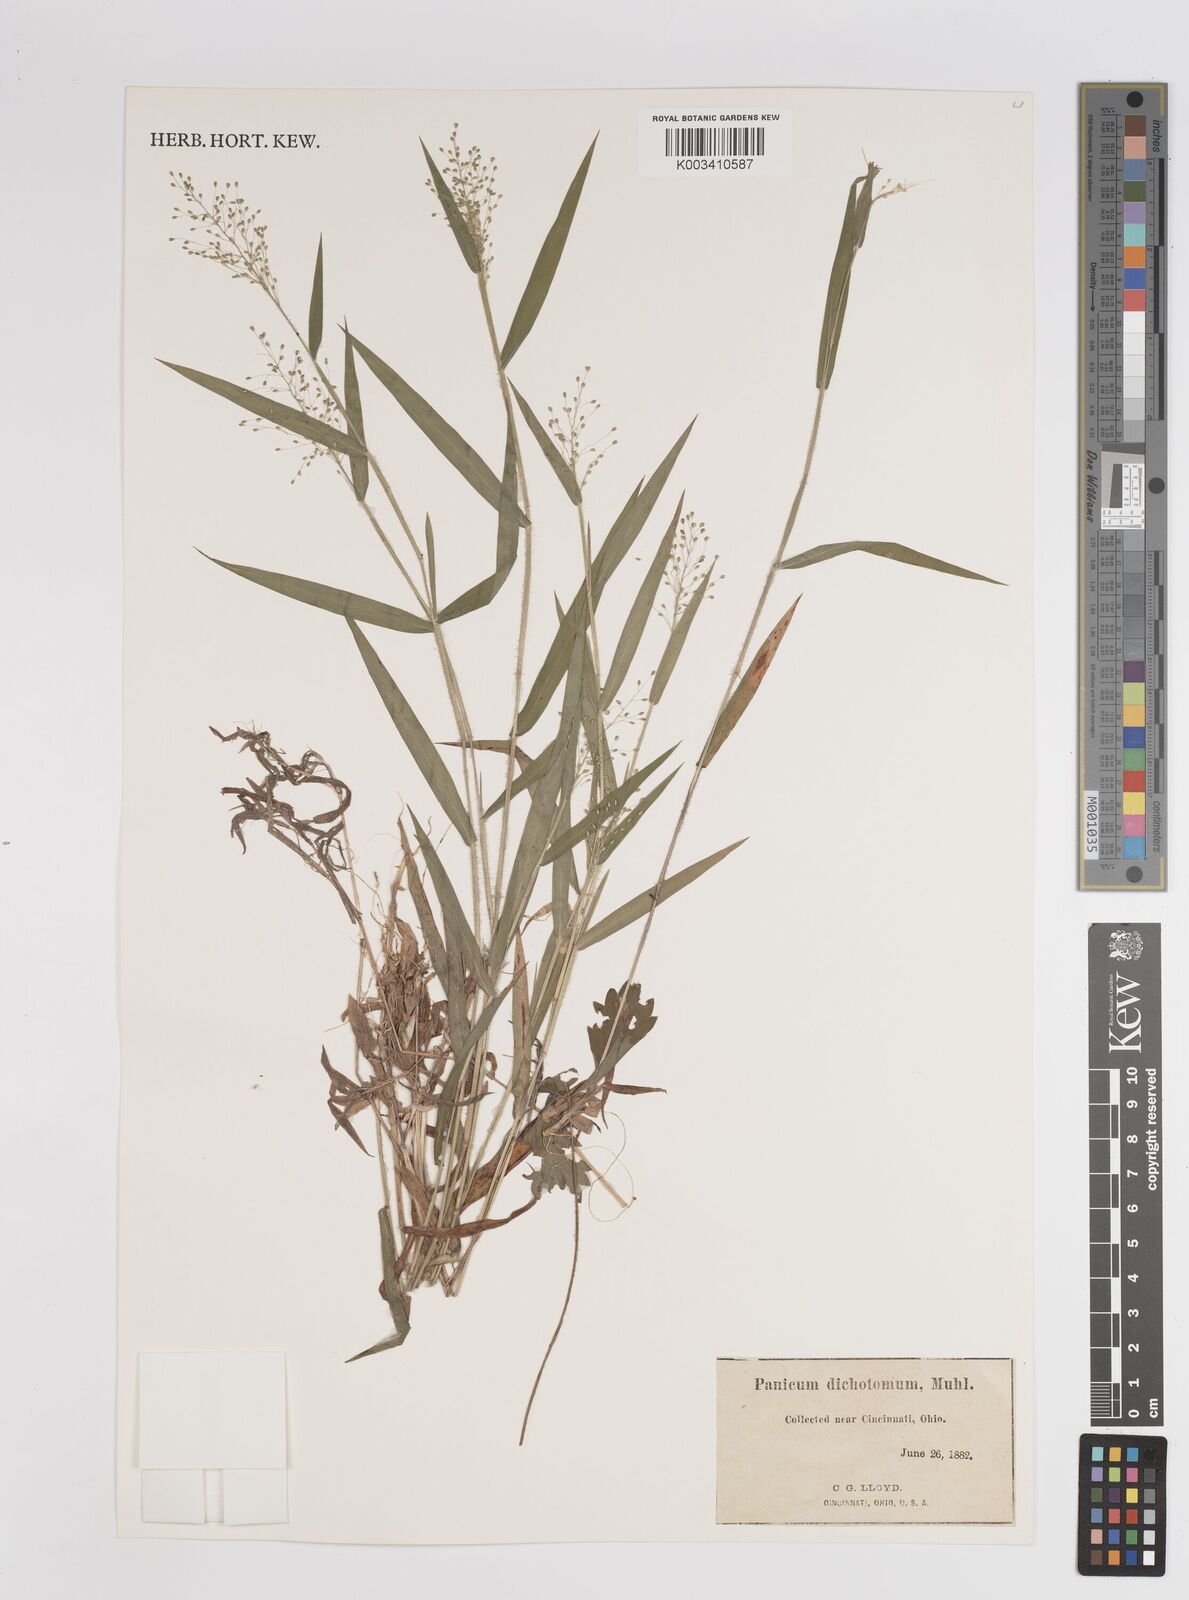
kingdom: Plantae
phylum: Tracheophyta
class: Liliopsida
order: Poales
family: Poaceae
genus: Dichanthelium
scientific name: Dichanthelium lucidum
